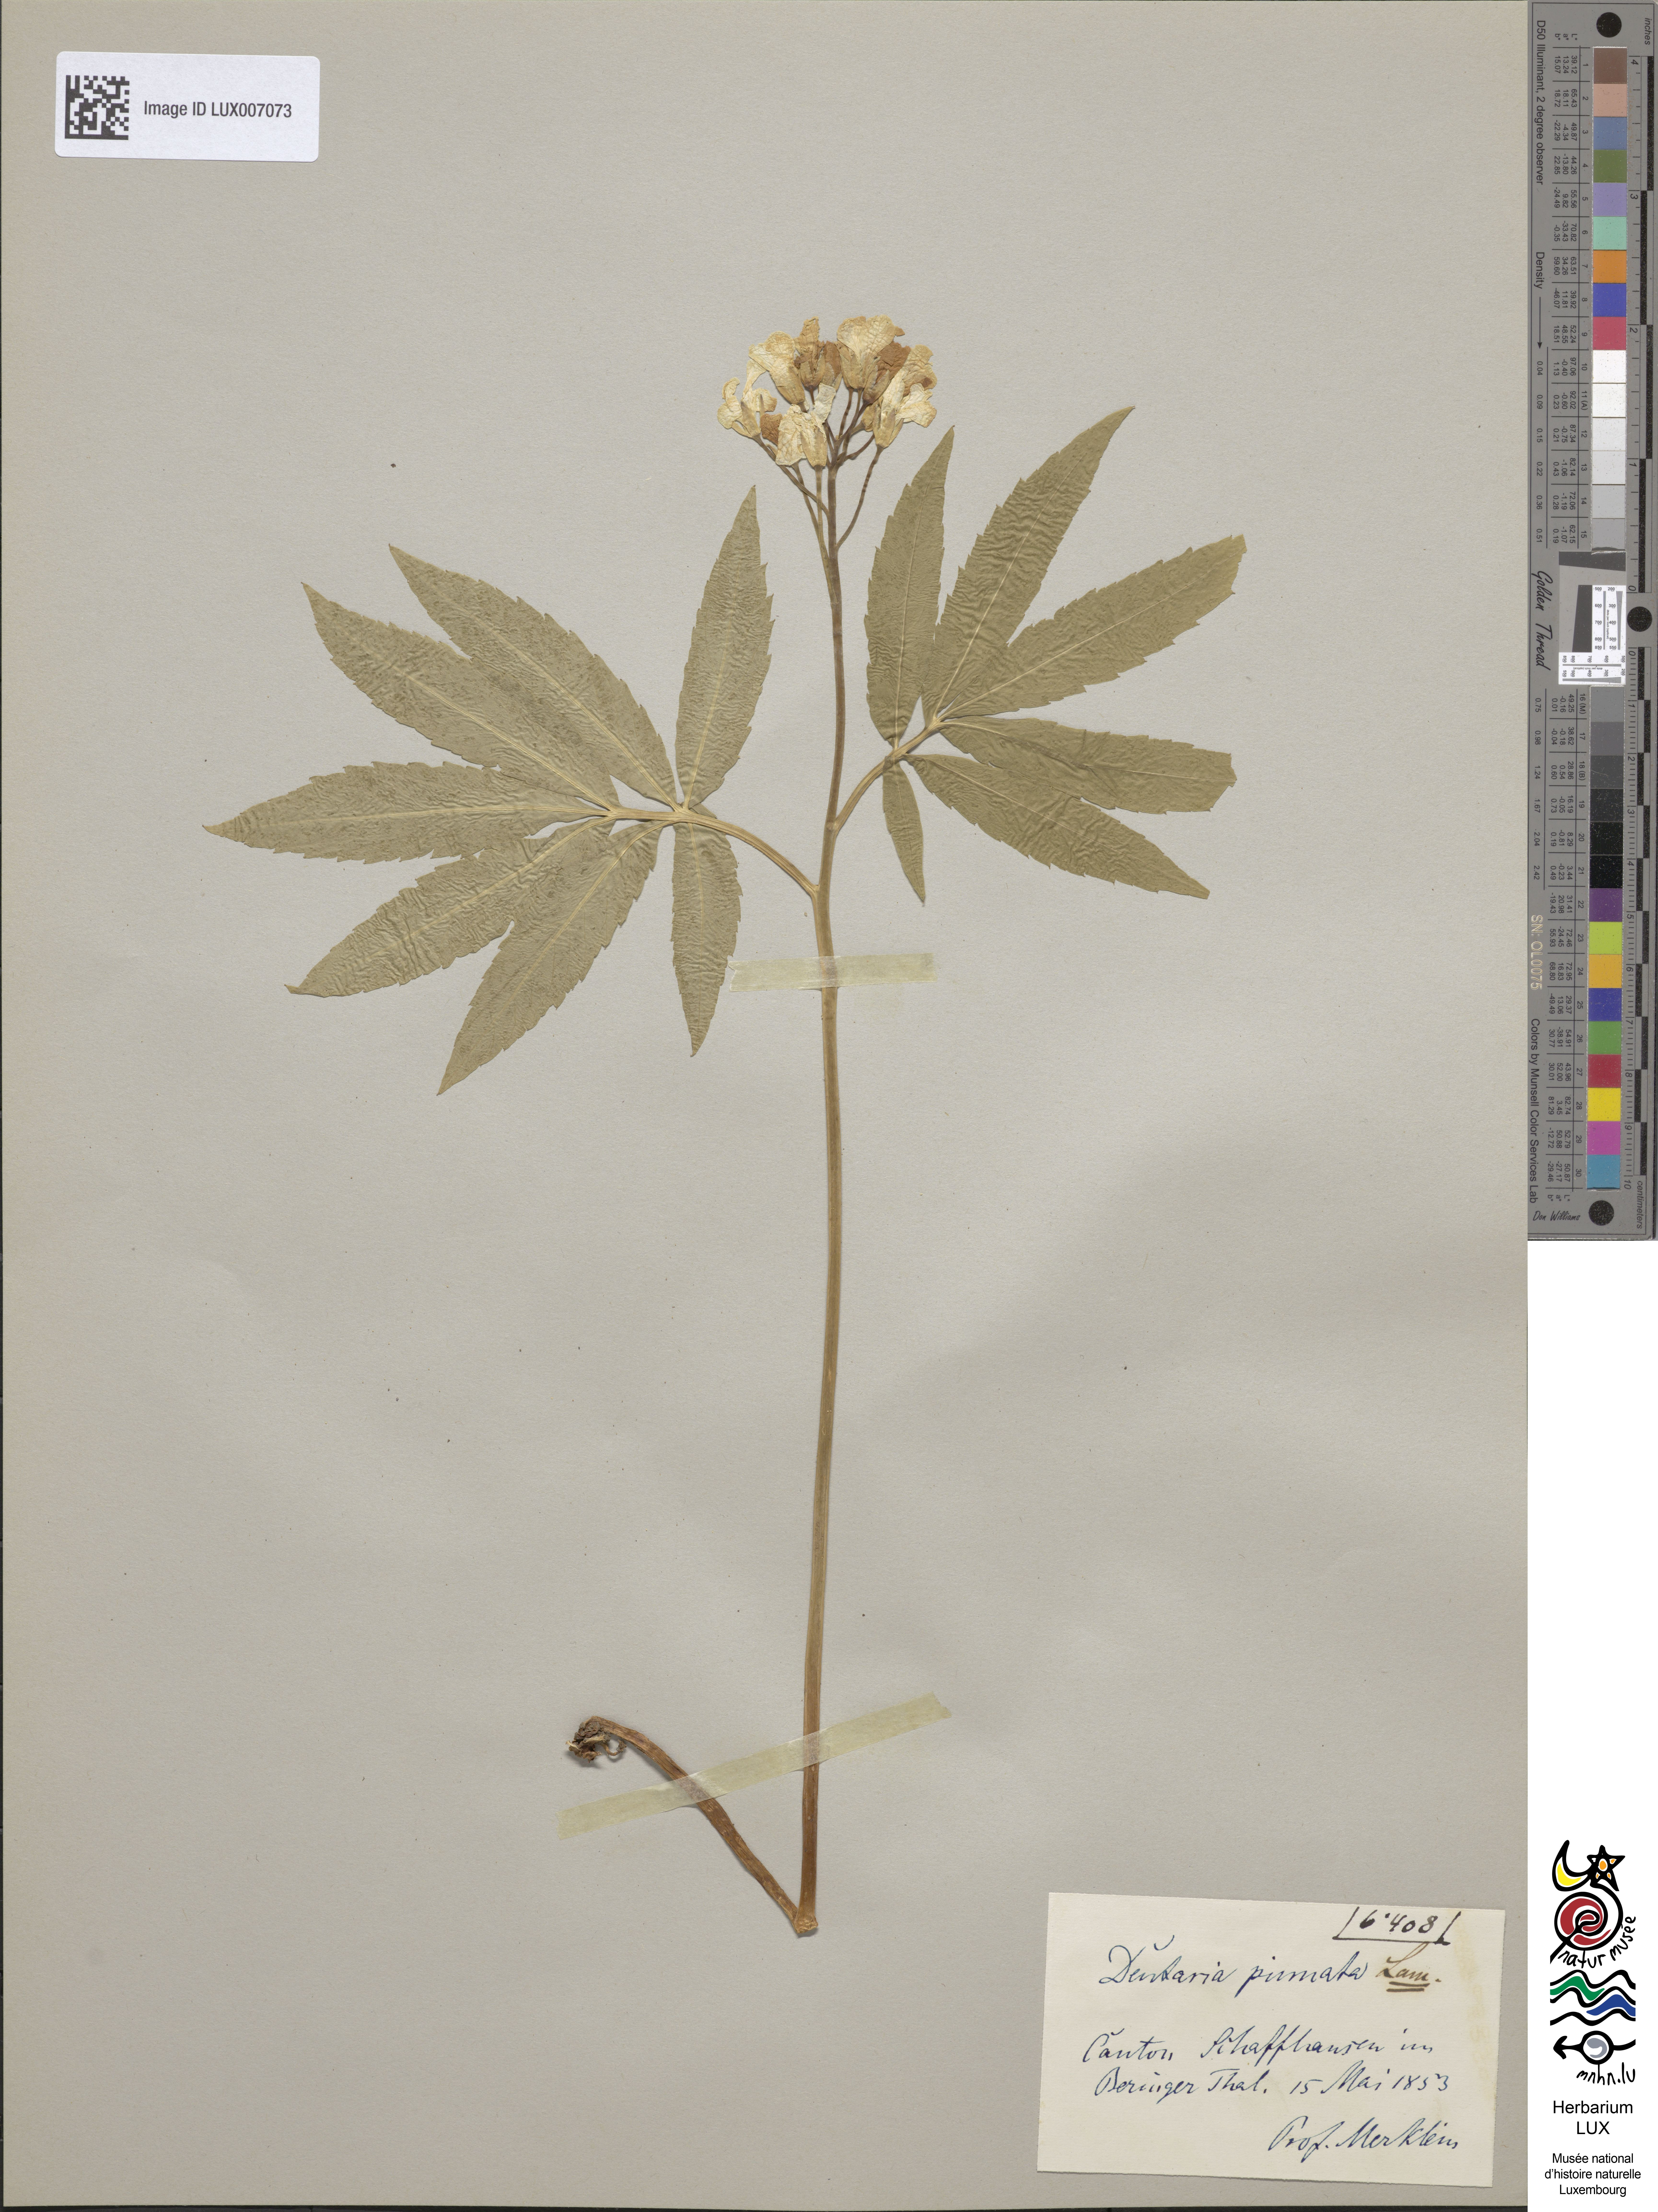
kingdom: Plantae
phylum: Tracheophyta
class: Magnoliopsida
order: Brassicales
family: Brassicaceae
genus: Cardamine
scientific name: Cardamine heptaphylla
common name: Pinnate coralroot
